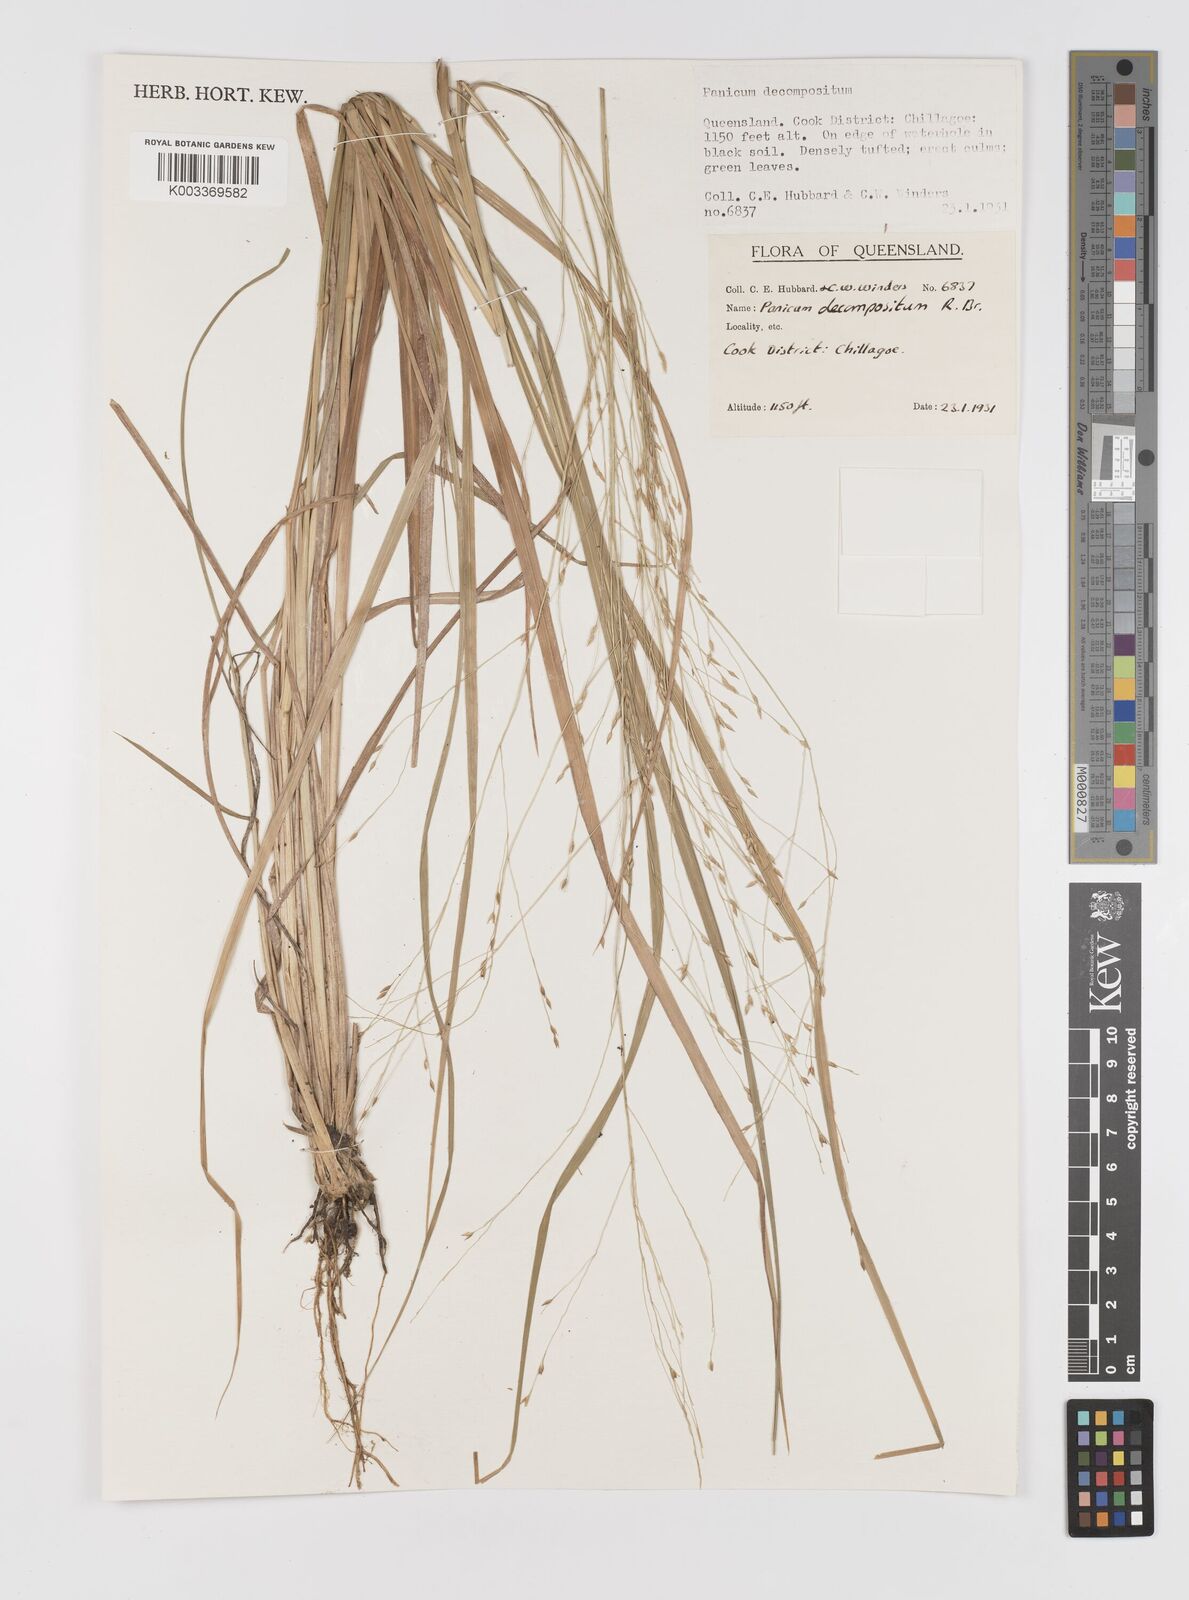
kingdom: Plantae
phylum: Tracheophyta
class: Liliopsida
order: Poales
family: Poaceae
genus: Panicum
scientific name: Panicum decompositum
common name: Australian millet
